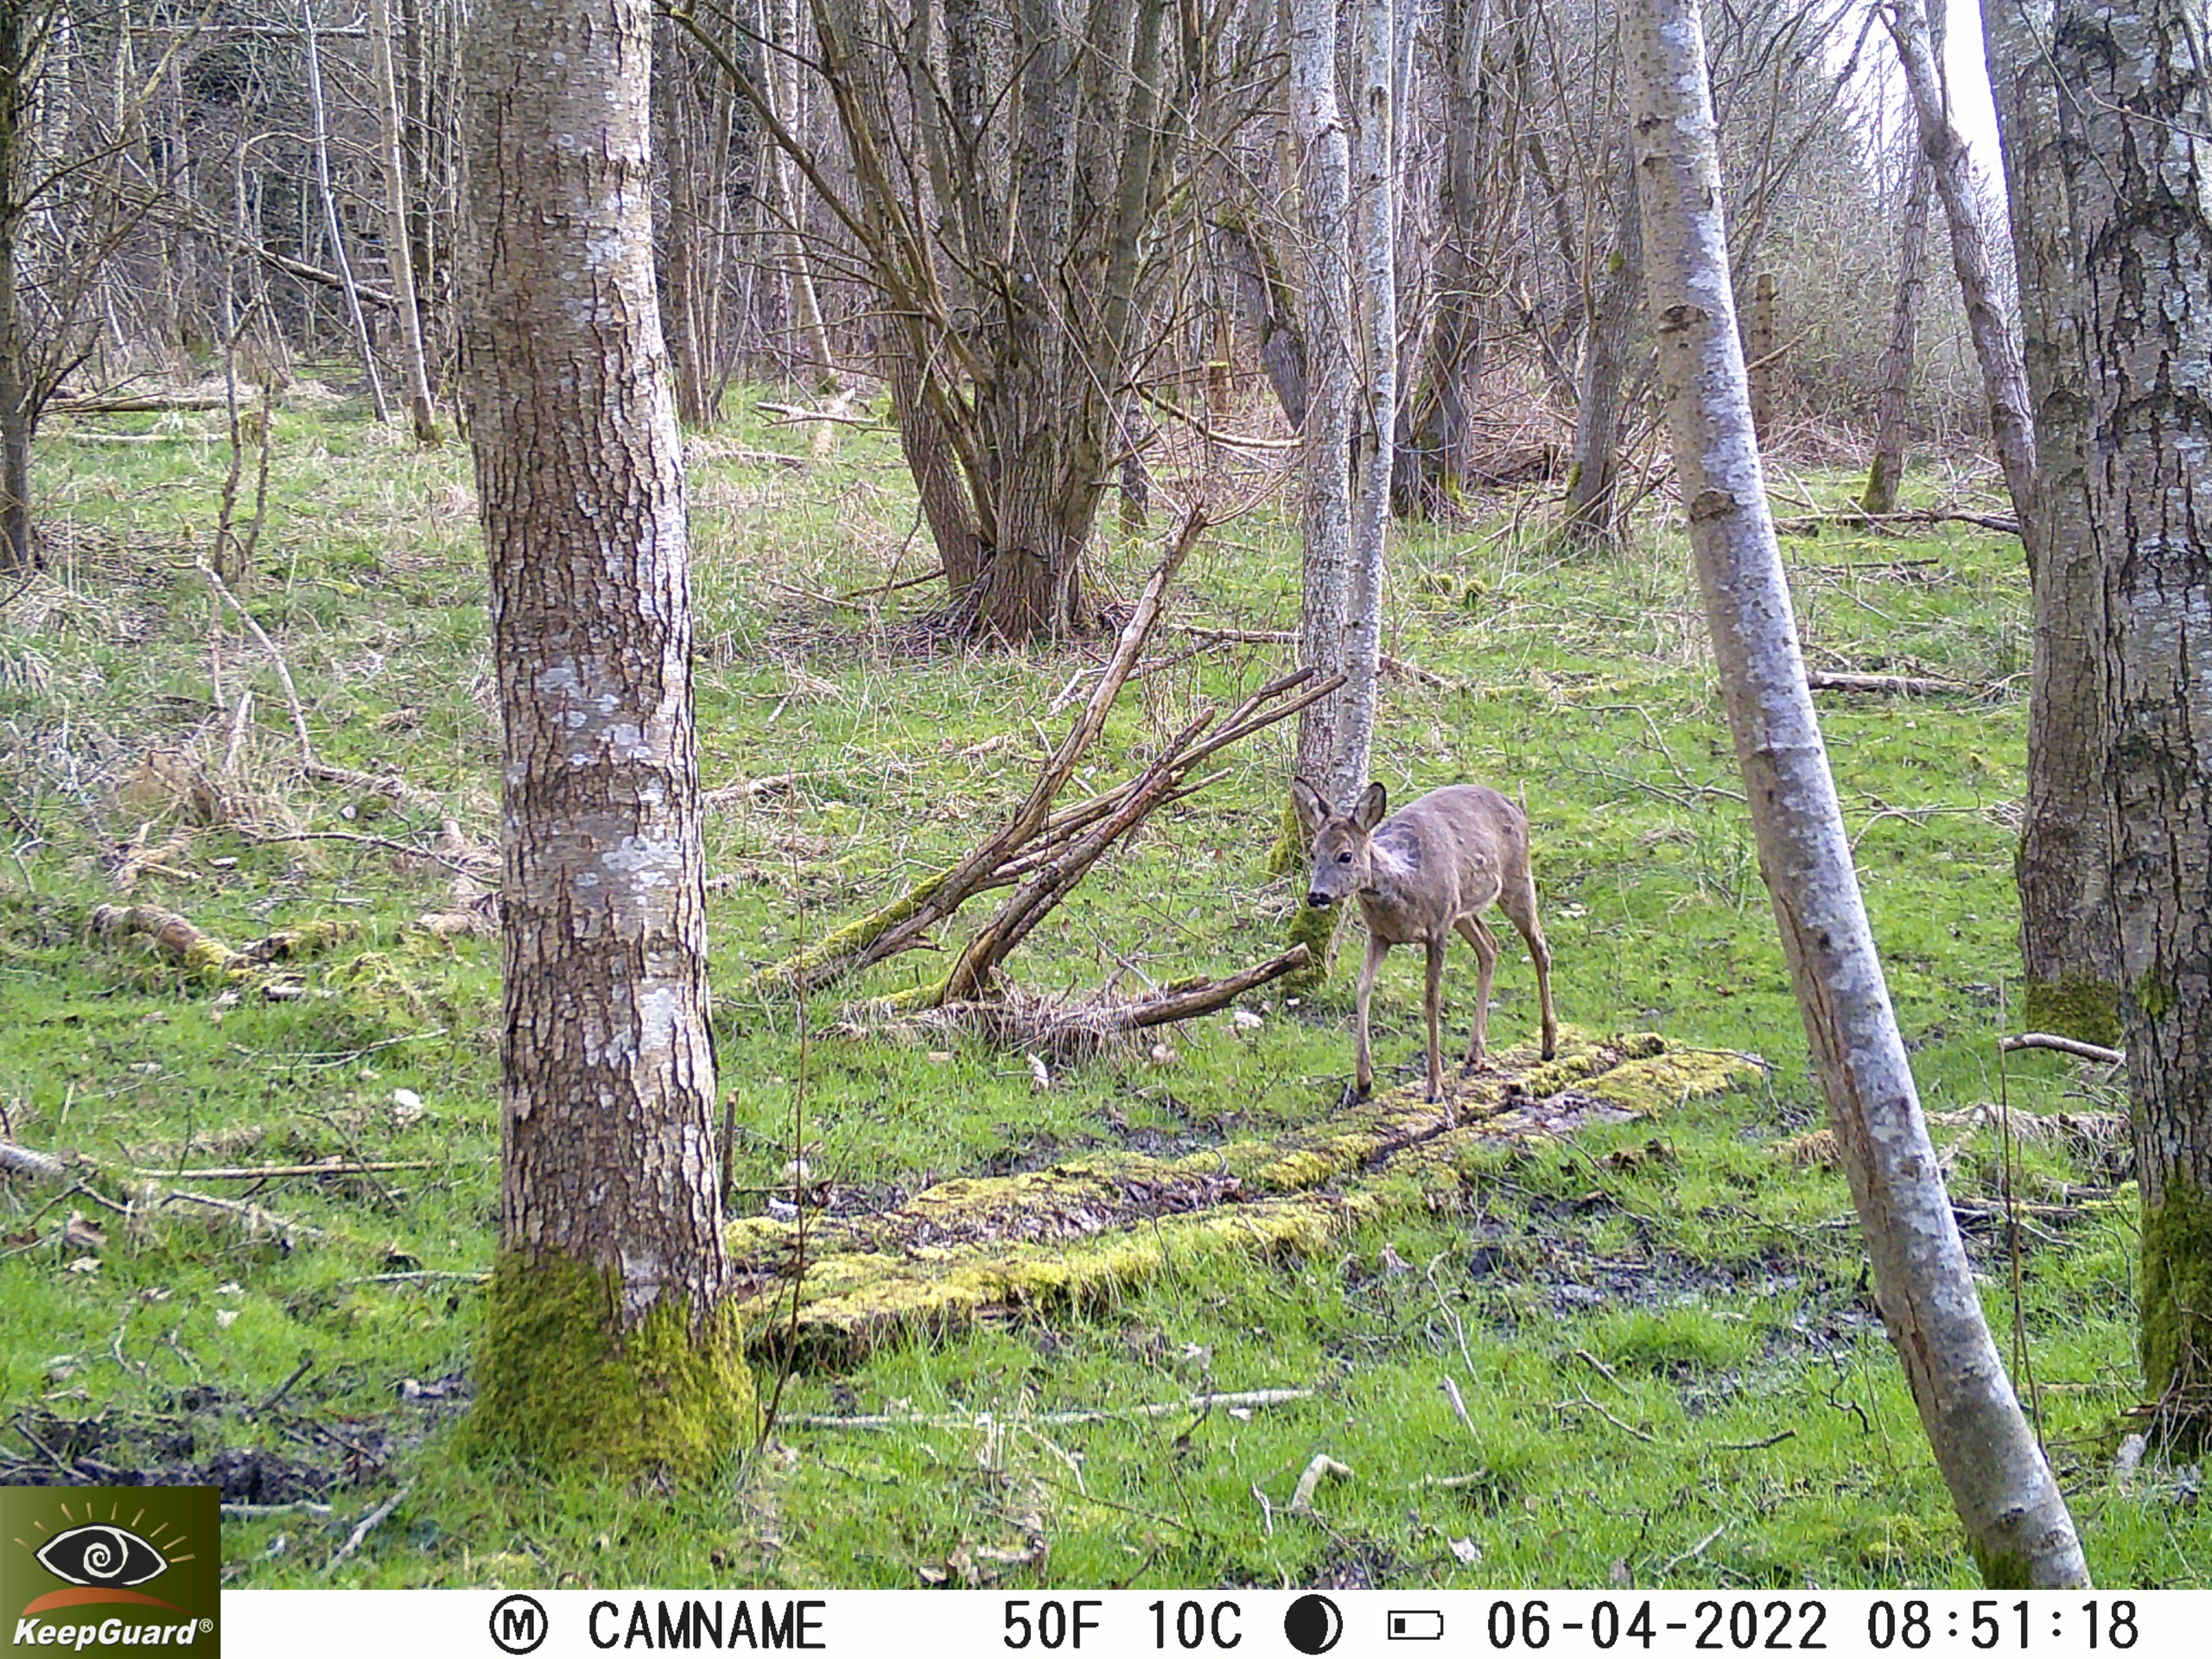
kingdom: Animalia
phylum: Chordata
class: Mammalia
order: Artiodactyla
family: Cervidae
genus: Capreolus
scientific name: Capreolus capreolus
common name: Rådyr
